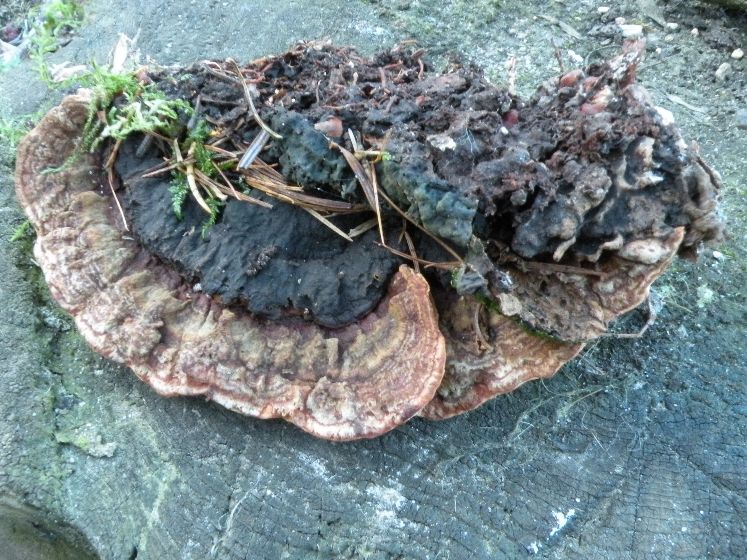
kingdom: Fungi
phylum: Basidiomycota
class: Agaricomycetes
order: Russulales
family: Bondarzewiaceae
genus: Heterobasidion
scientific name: Heterobasidion annosum
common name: almindelig rodfordærver
